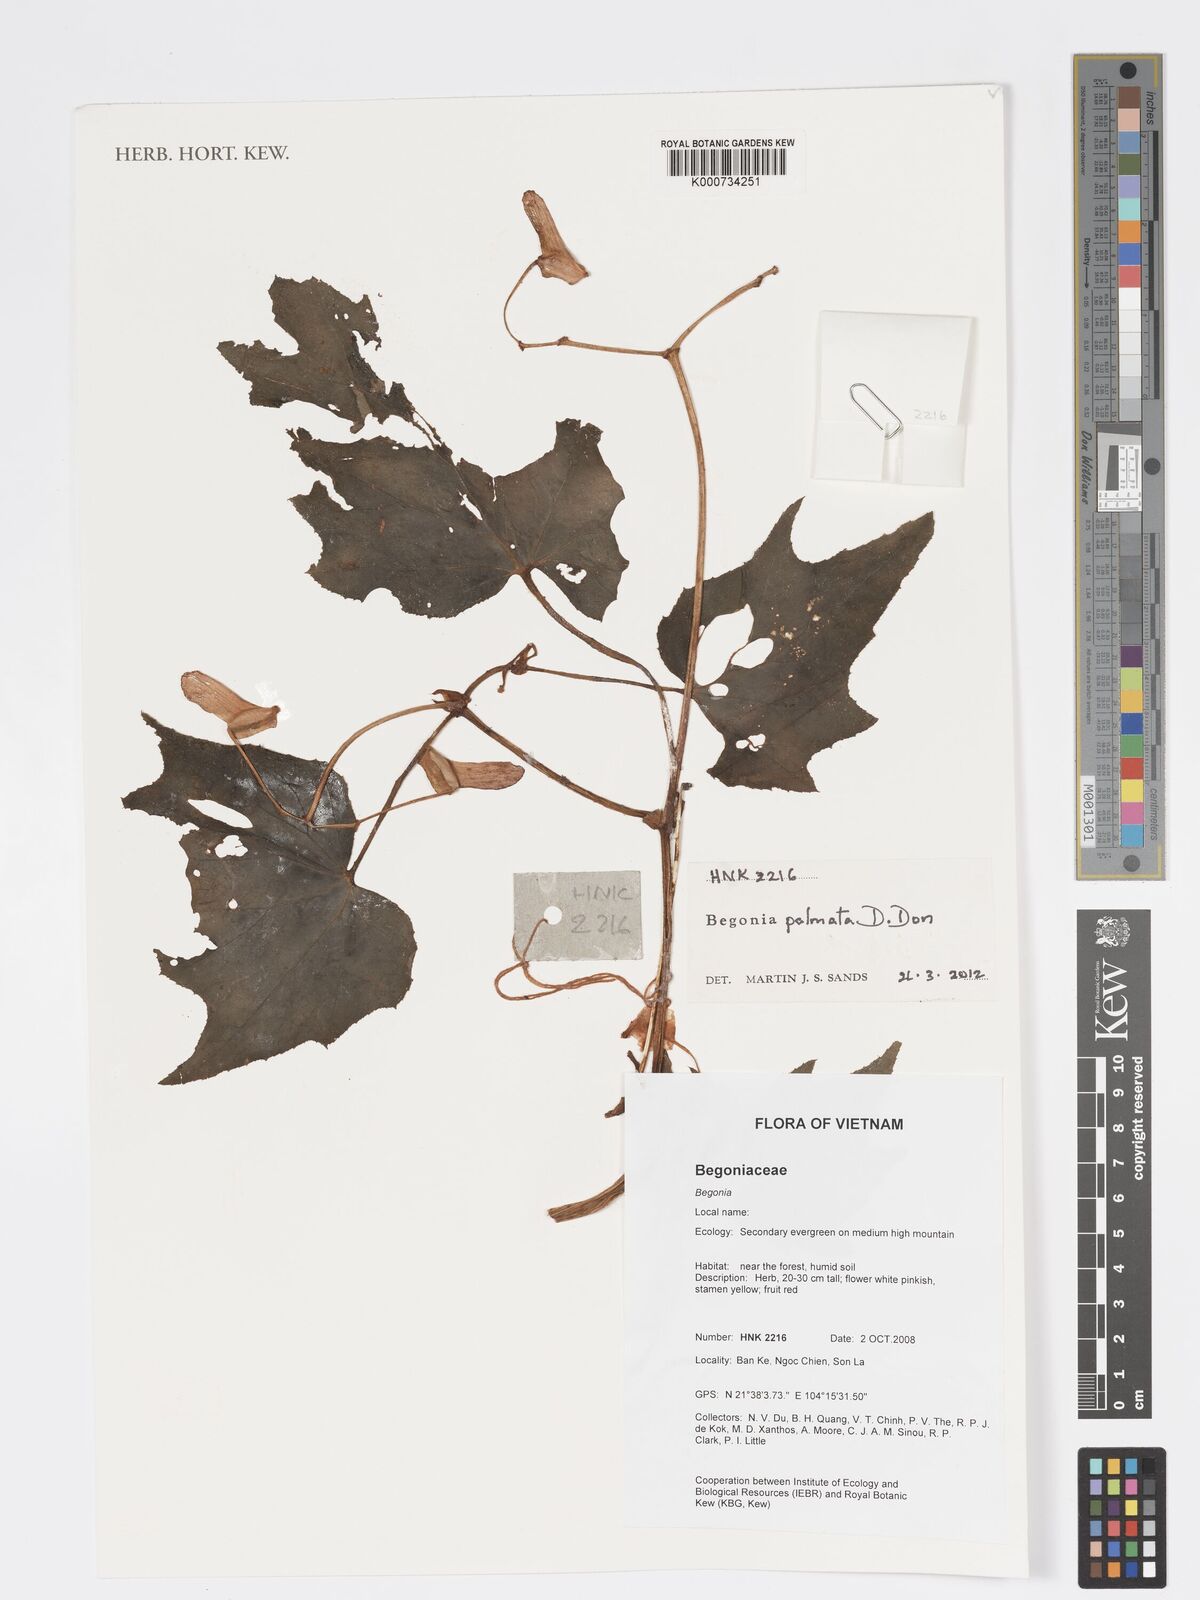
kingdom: Plantae
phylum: Tracheophyta
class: Magnoliopsida
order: Cucurbitales
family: Begoniaceae
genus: Begonia
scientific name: Begonia palmata
